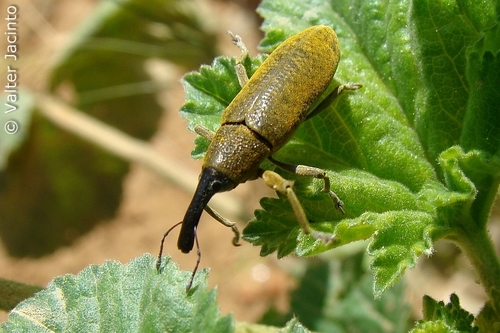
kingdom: Animalia
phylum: Arthropoda
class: Insecta
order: Coleoptera
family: Curculionidae
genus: Lixus
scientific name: Lixus pulverulentus
